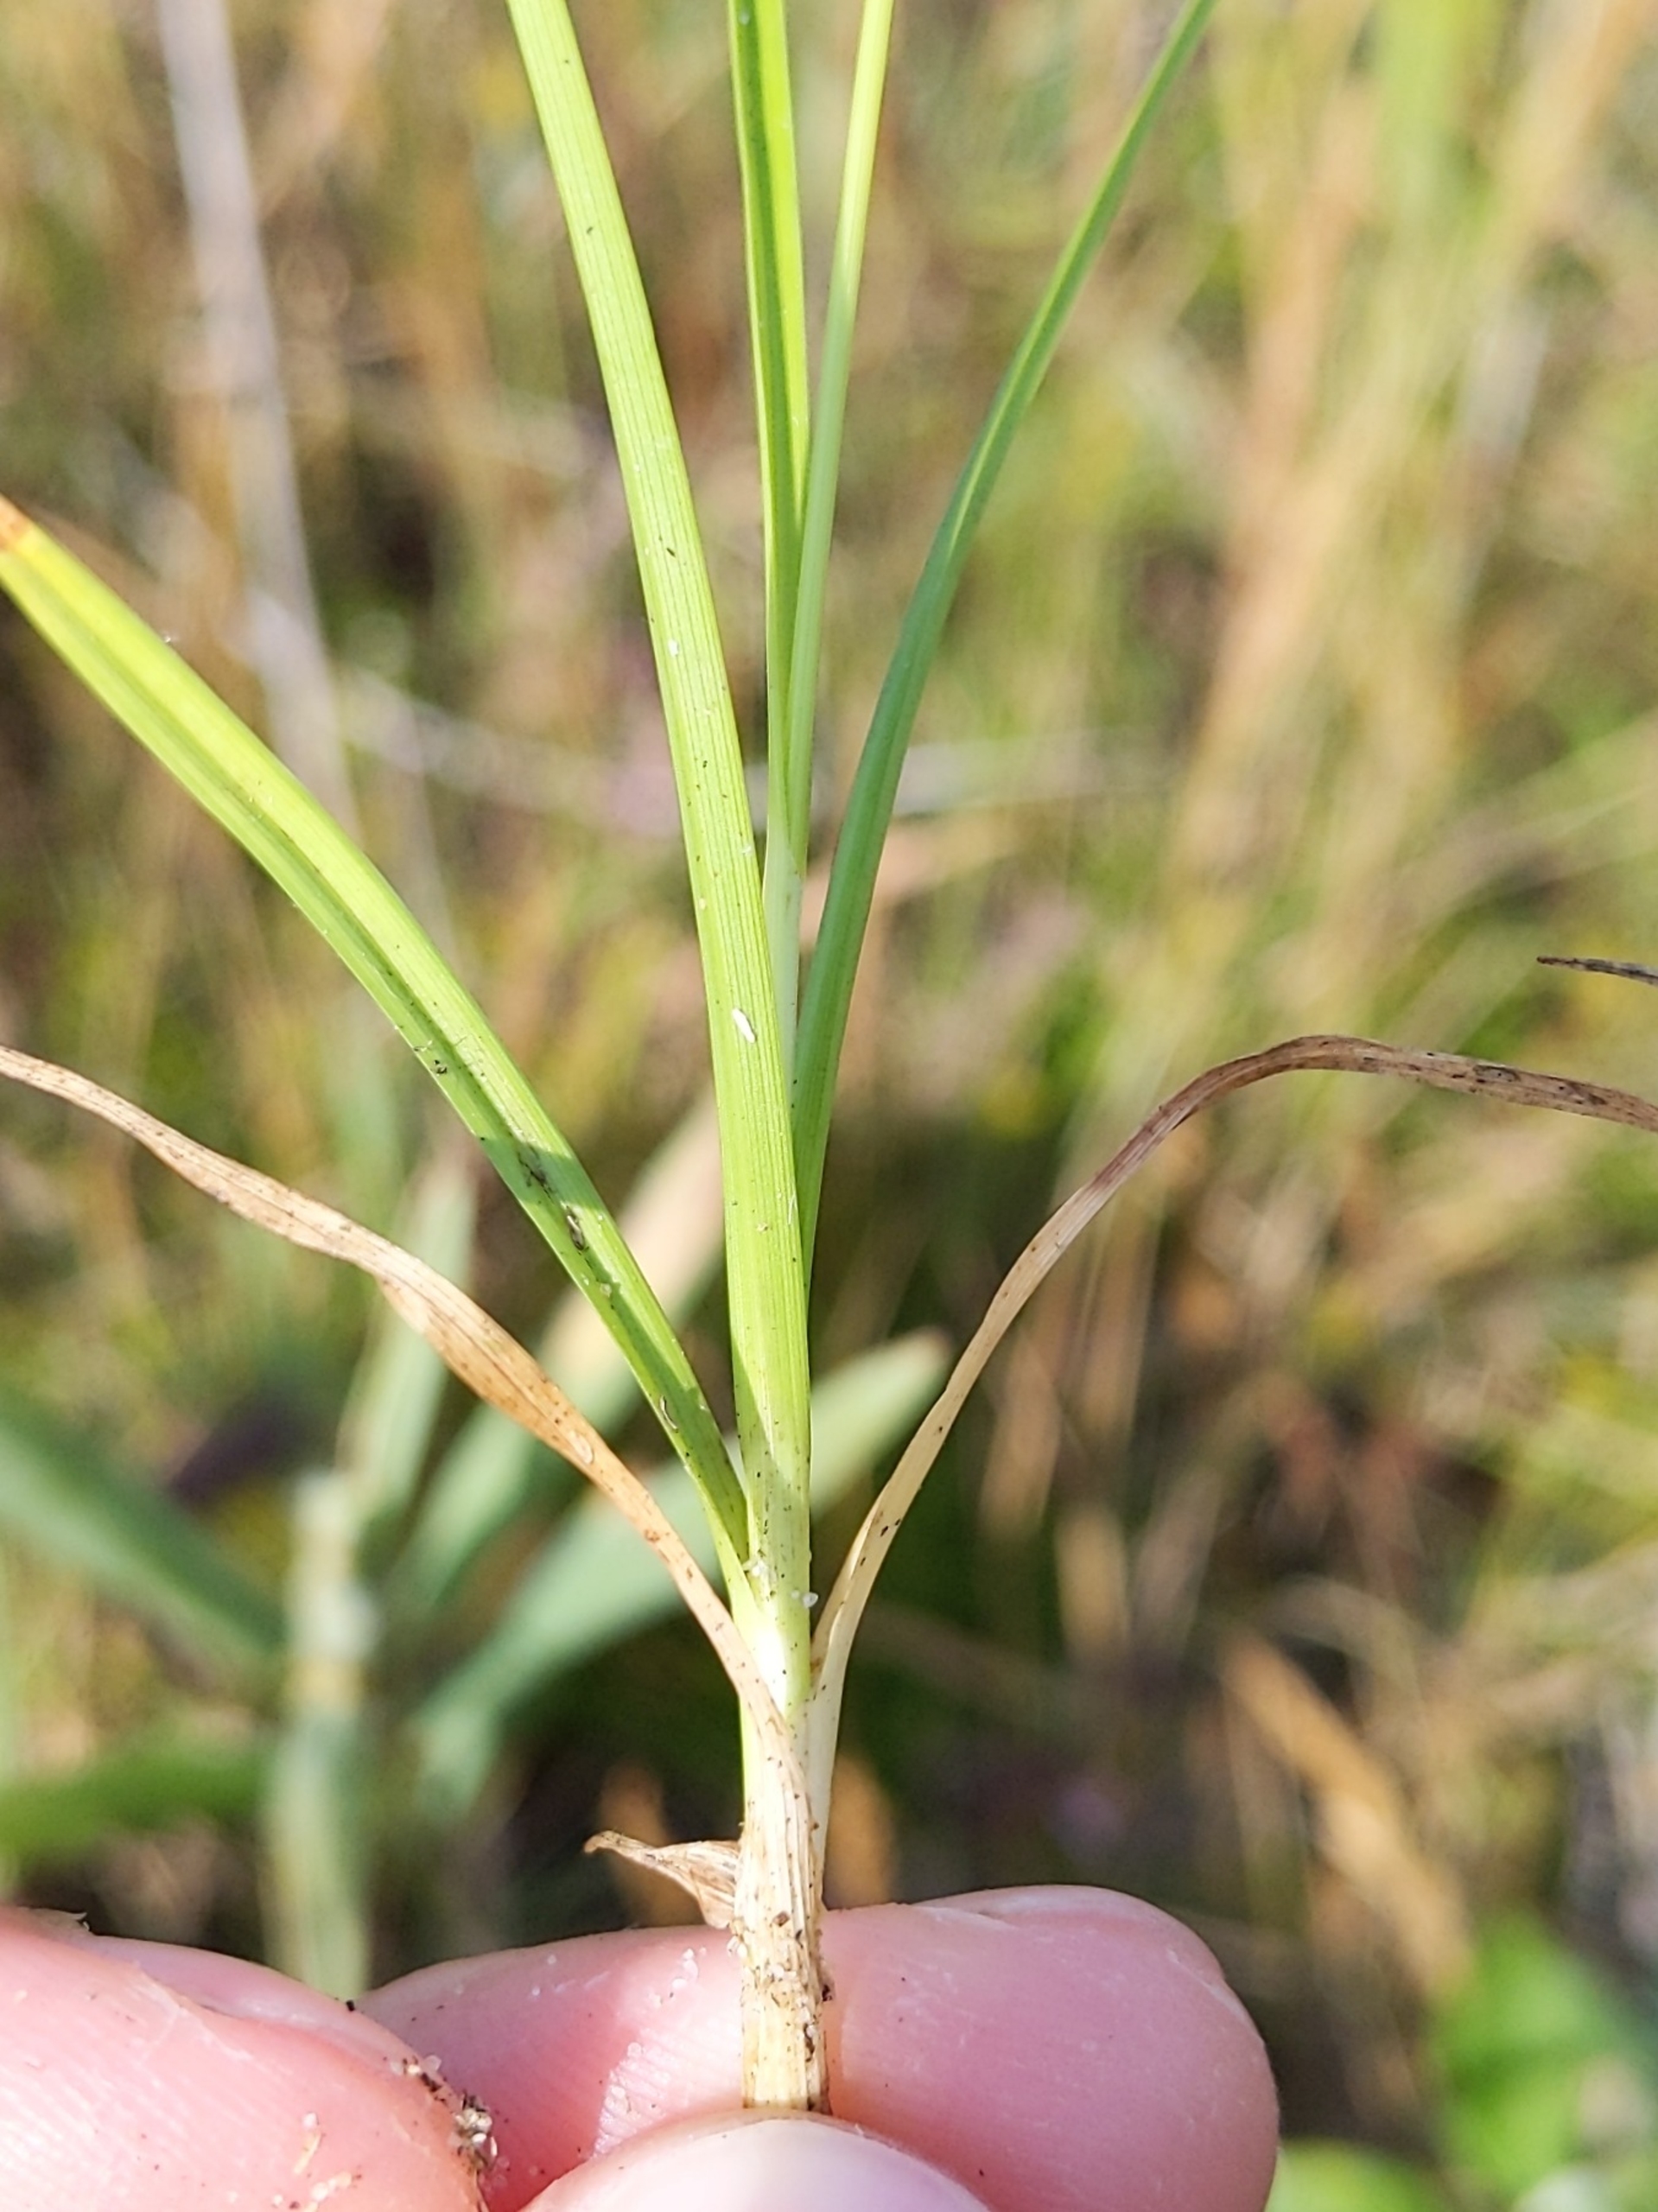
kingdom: Plantae
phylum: Tracheophyta
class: Liliopsida
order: Poales
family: Cyperaceae
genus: Carex
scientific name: Carex oederi
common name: Dværg-star
